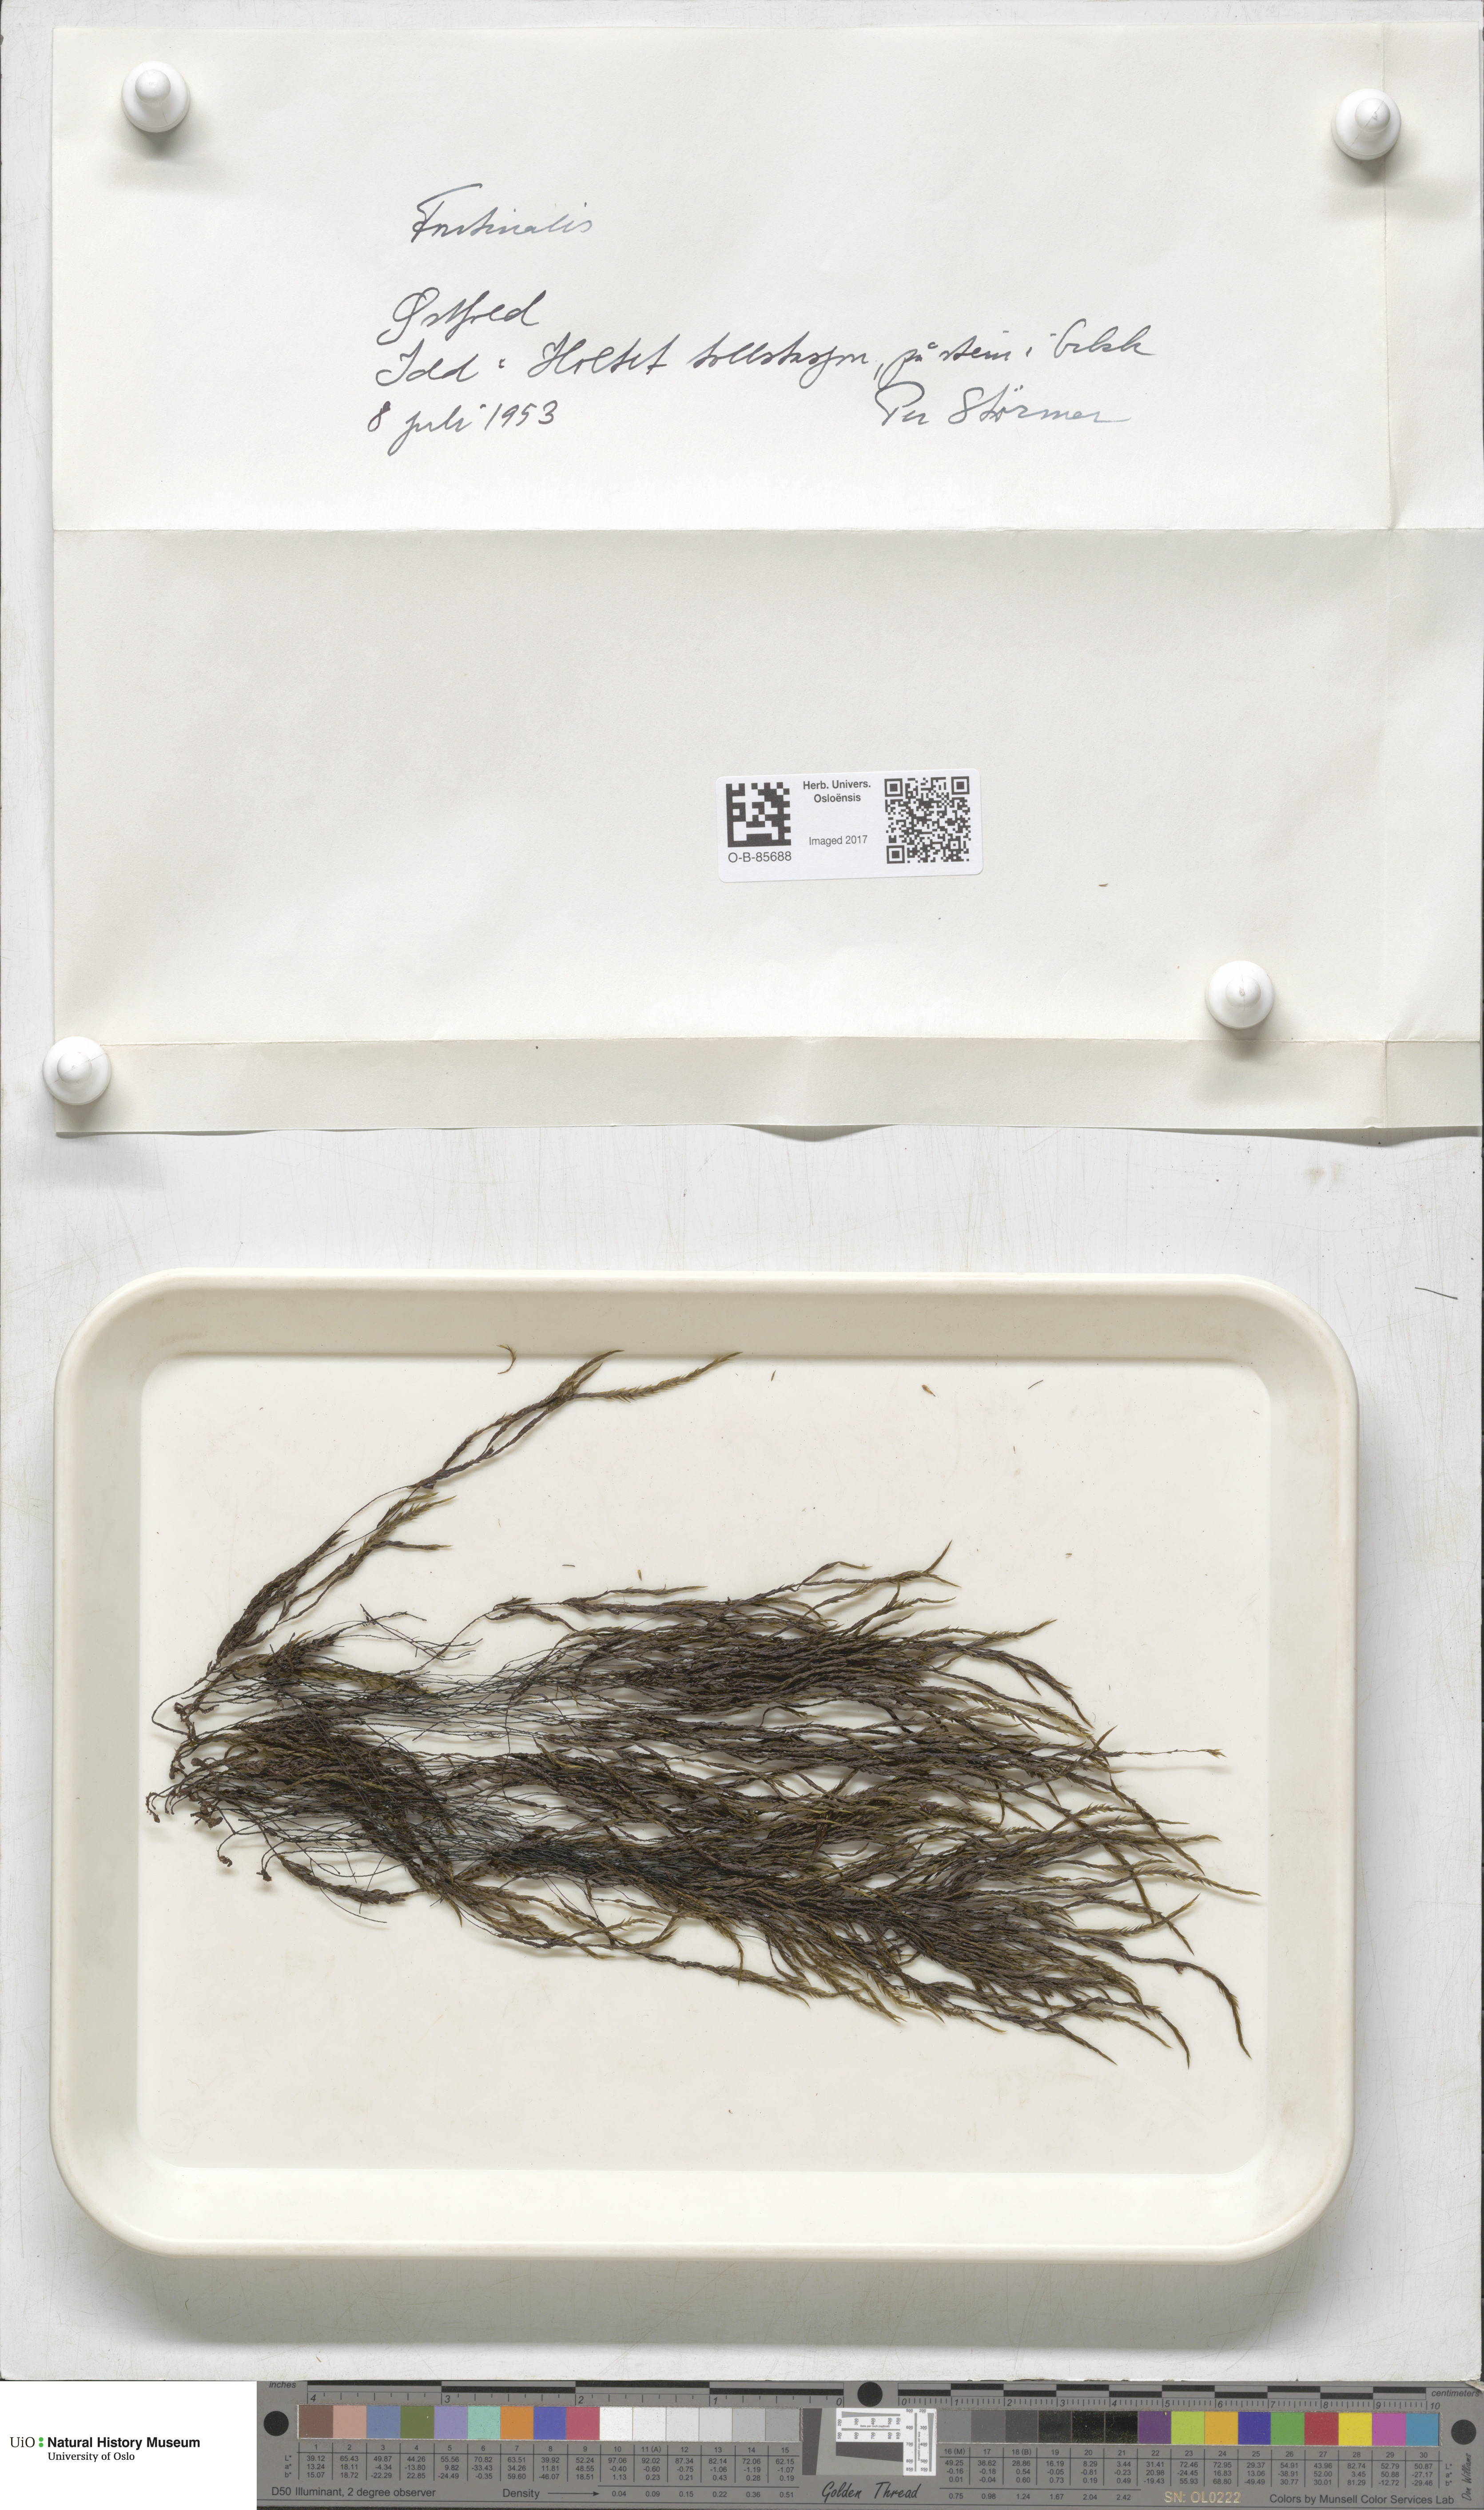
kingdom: Plantae
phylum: Bryophyta
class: Bryopsida
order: Hypnales
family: Fontinalaceae
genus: Fontinalis
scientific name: Fontinalis
